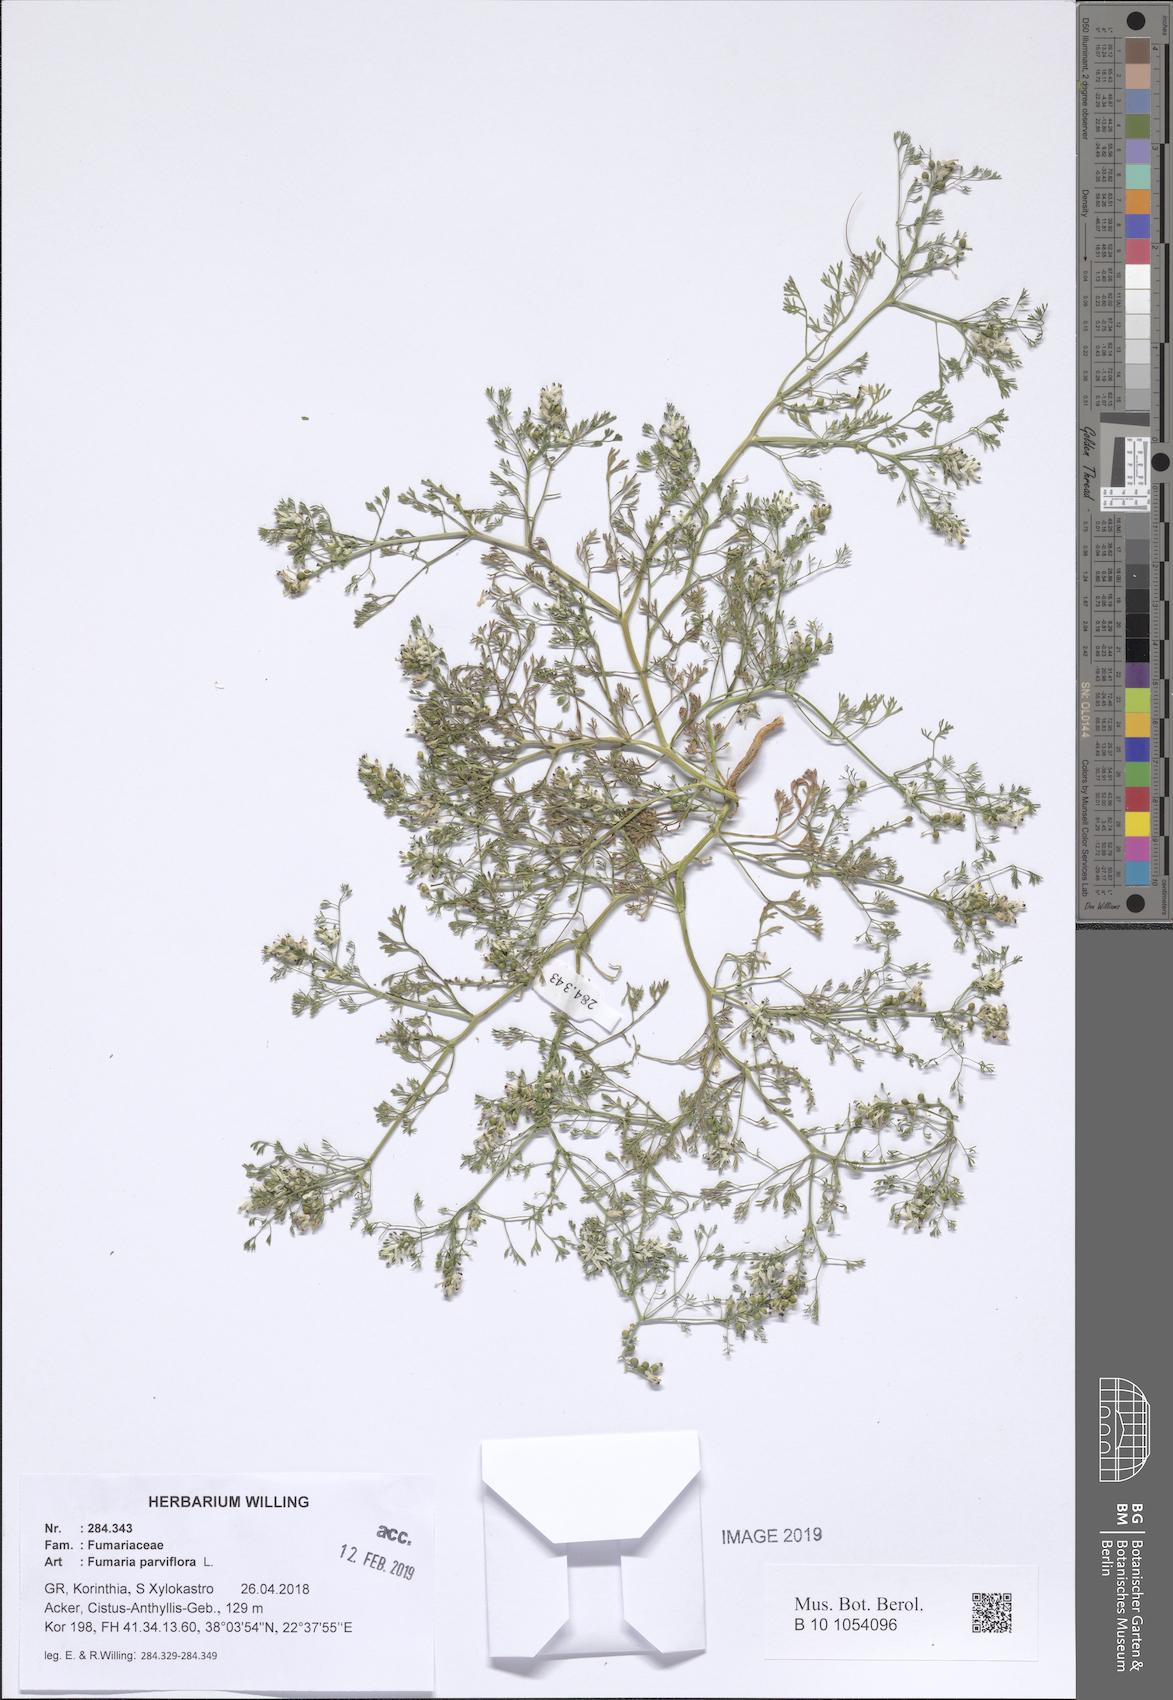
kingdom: Plantae
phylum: Tracheophyta
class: Magnoliopsida
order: Ranunculales
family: Papaveraceae
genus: Fumaria
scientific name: Fumaria parviflora
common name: Fine-leaved fumitory
